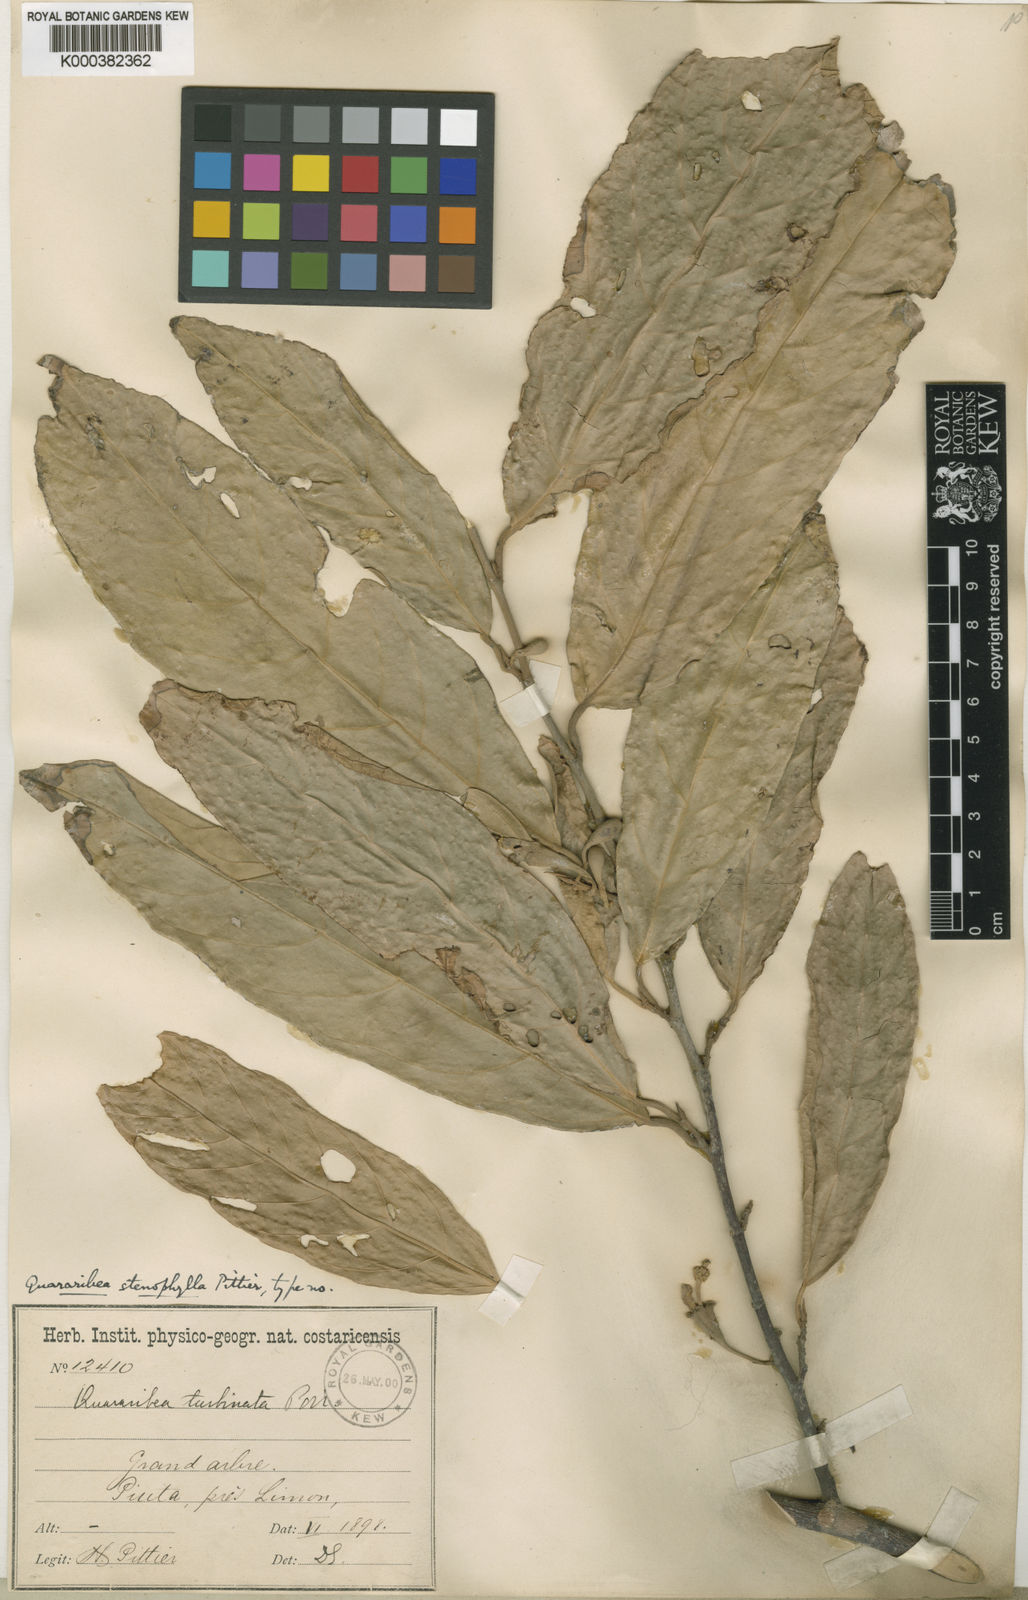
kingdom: Plantae
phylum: Tracheophyta
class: Magnoliopsida
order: Malvales
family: Malvaceae
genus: Quararibea
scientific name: Quararibea stenophylla
